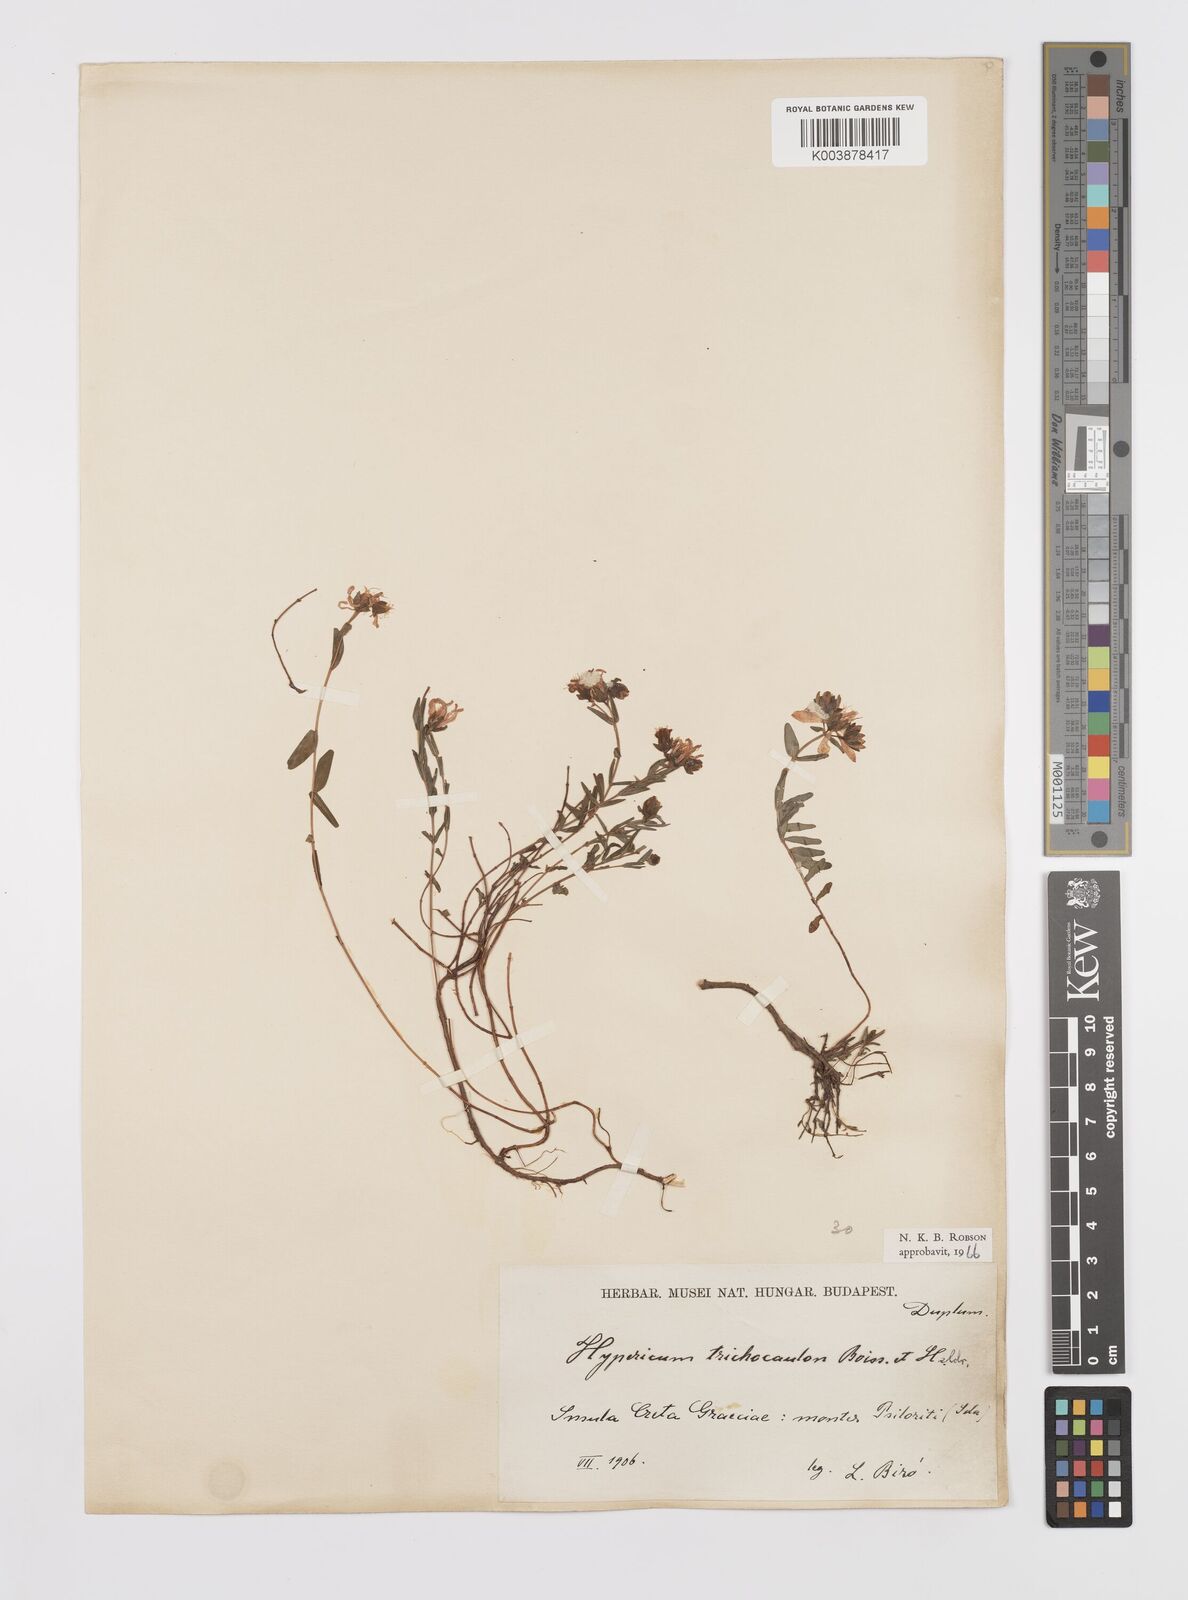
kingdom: Plantae
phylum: Tracheophyta
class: Magnoliopsida
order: Malpighiales
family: Hypericaceae
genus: Hypericum
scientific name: Hypericum trichocaulon
